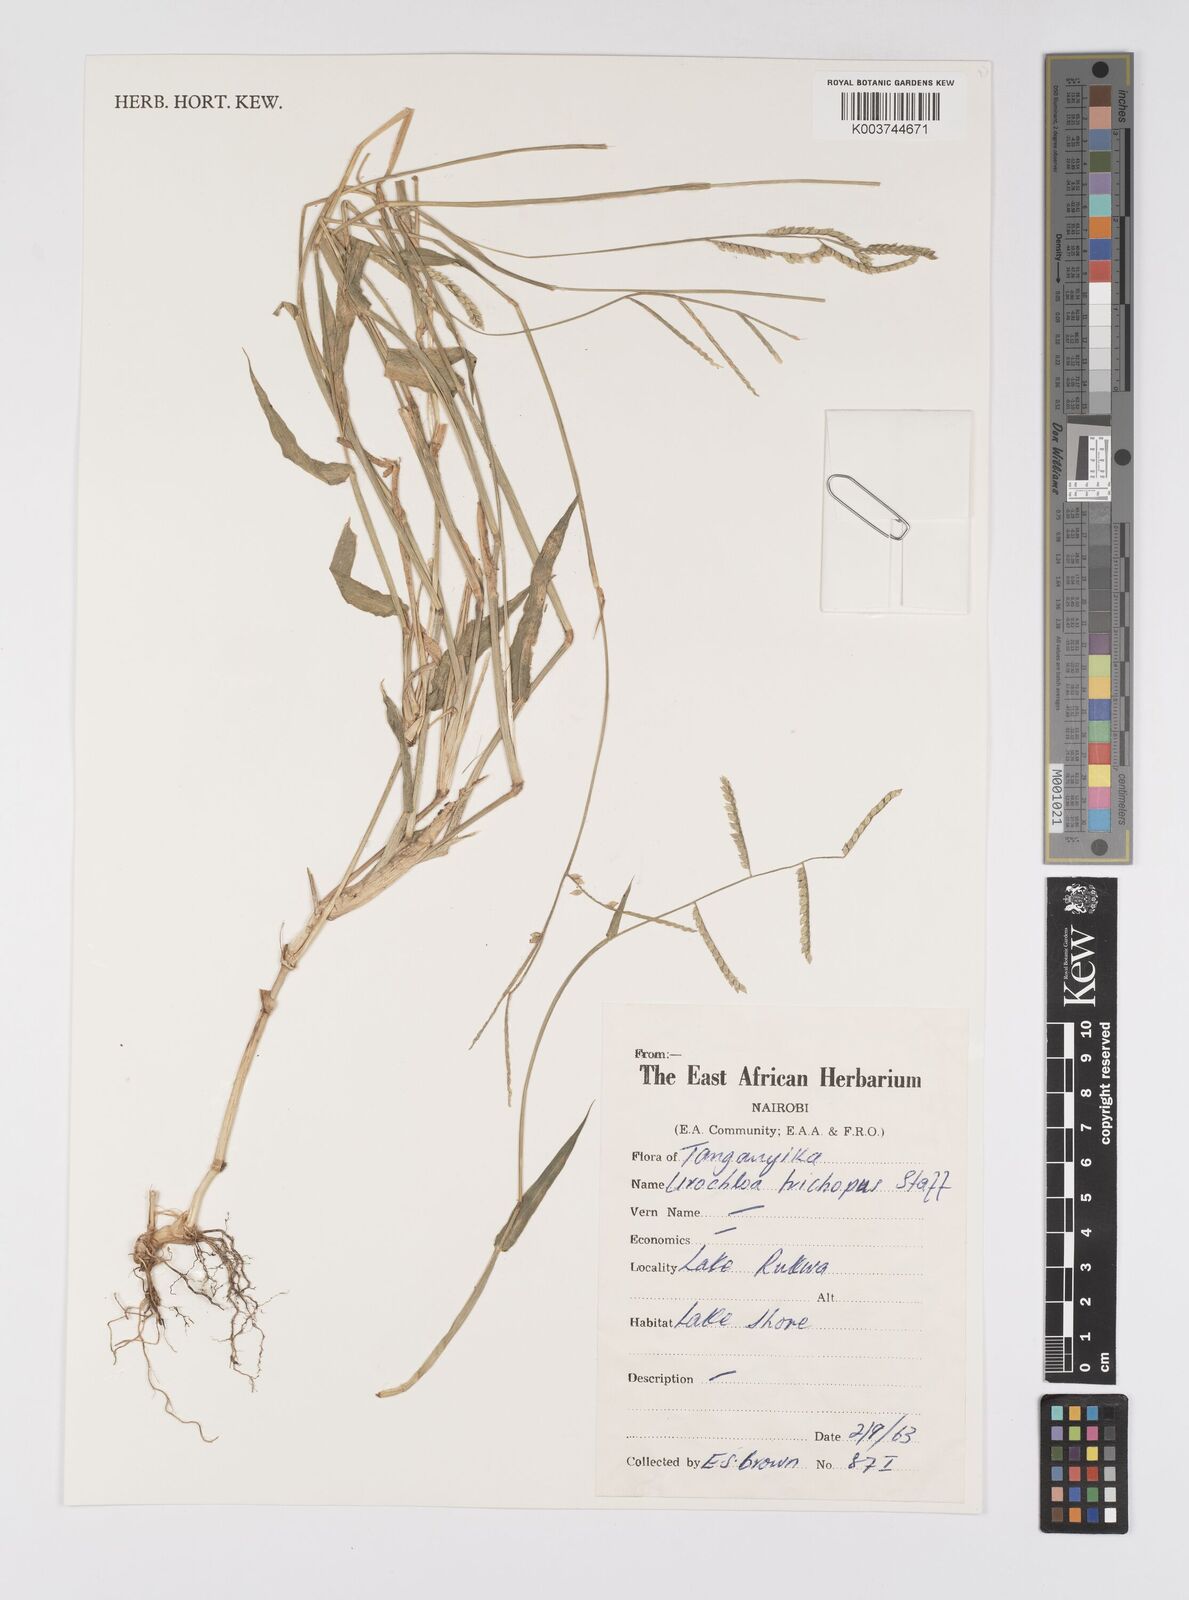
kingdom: Plantae
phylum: Tracheophyta
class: Liliopsida
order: Poales
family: Poaceae
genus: Urochloa
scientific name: Urochloa trichopus
